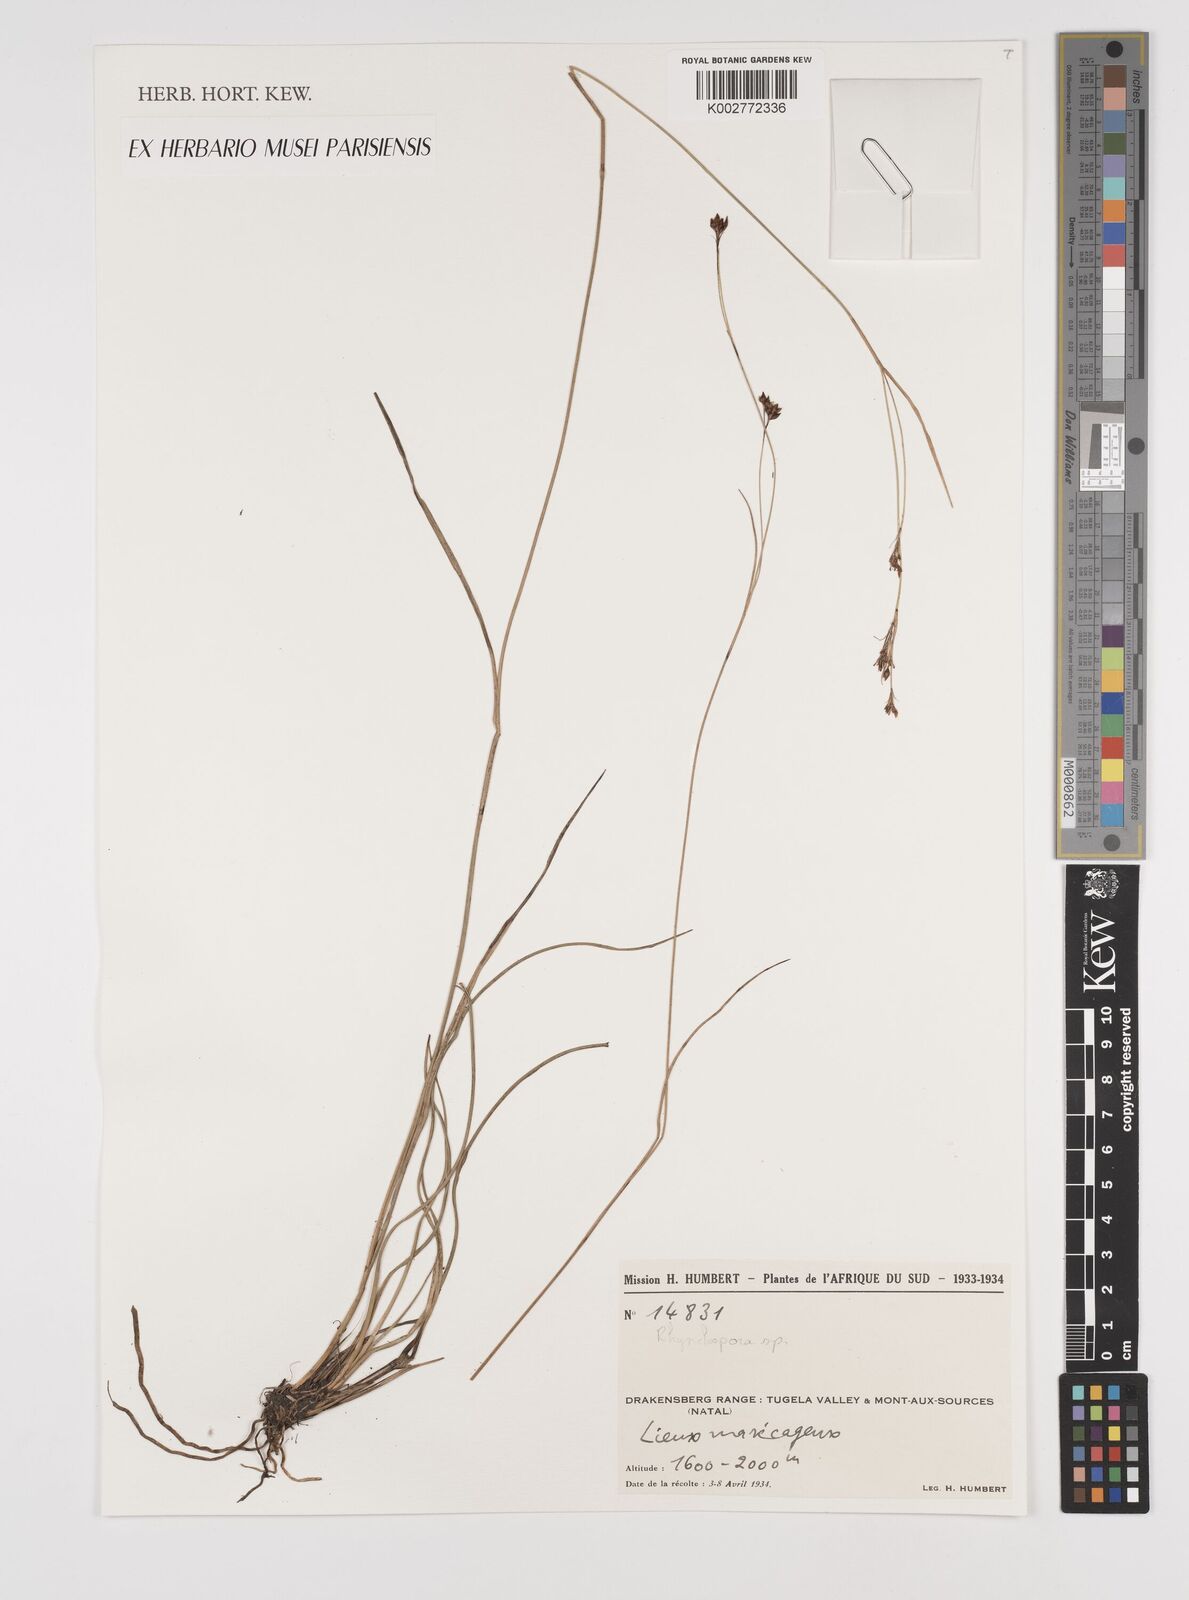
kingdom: Plantae
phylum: Tracheophyta
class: Liliopsida
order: Poales
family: Cyperaceae
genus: Rhynchospora
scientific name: Rhynchospora
